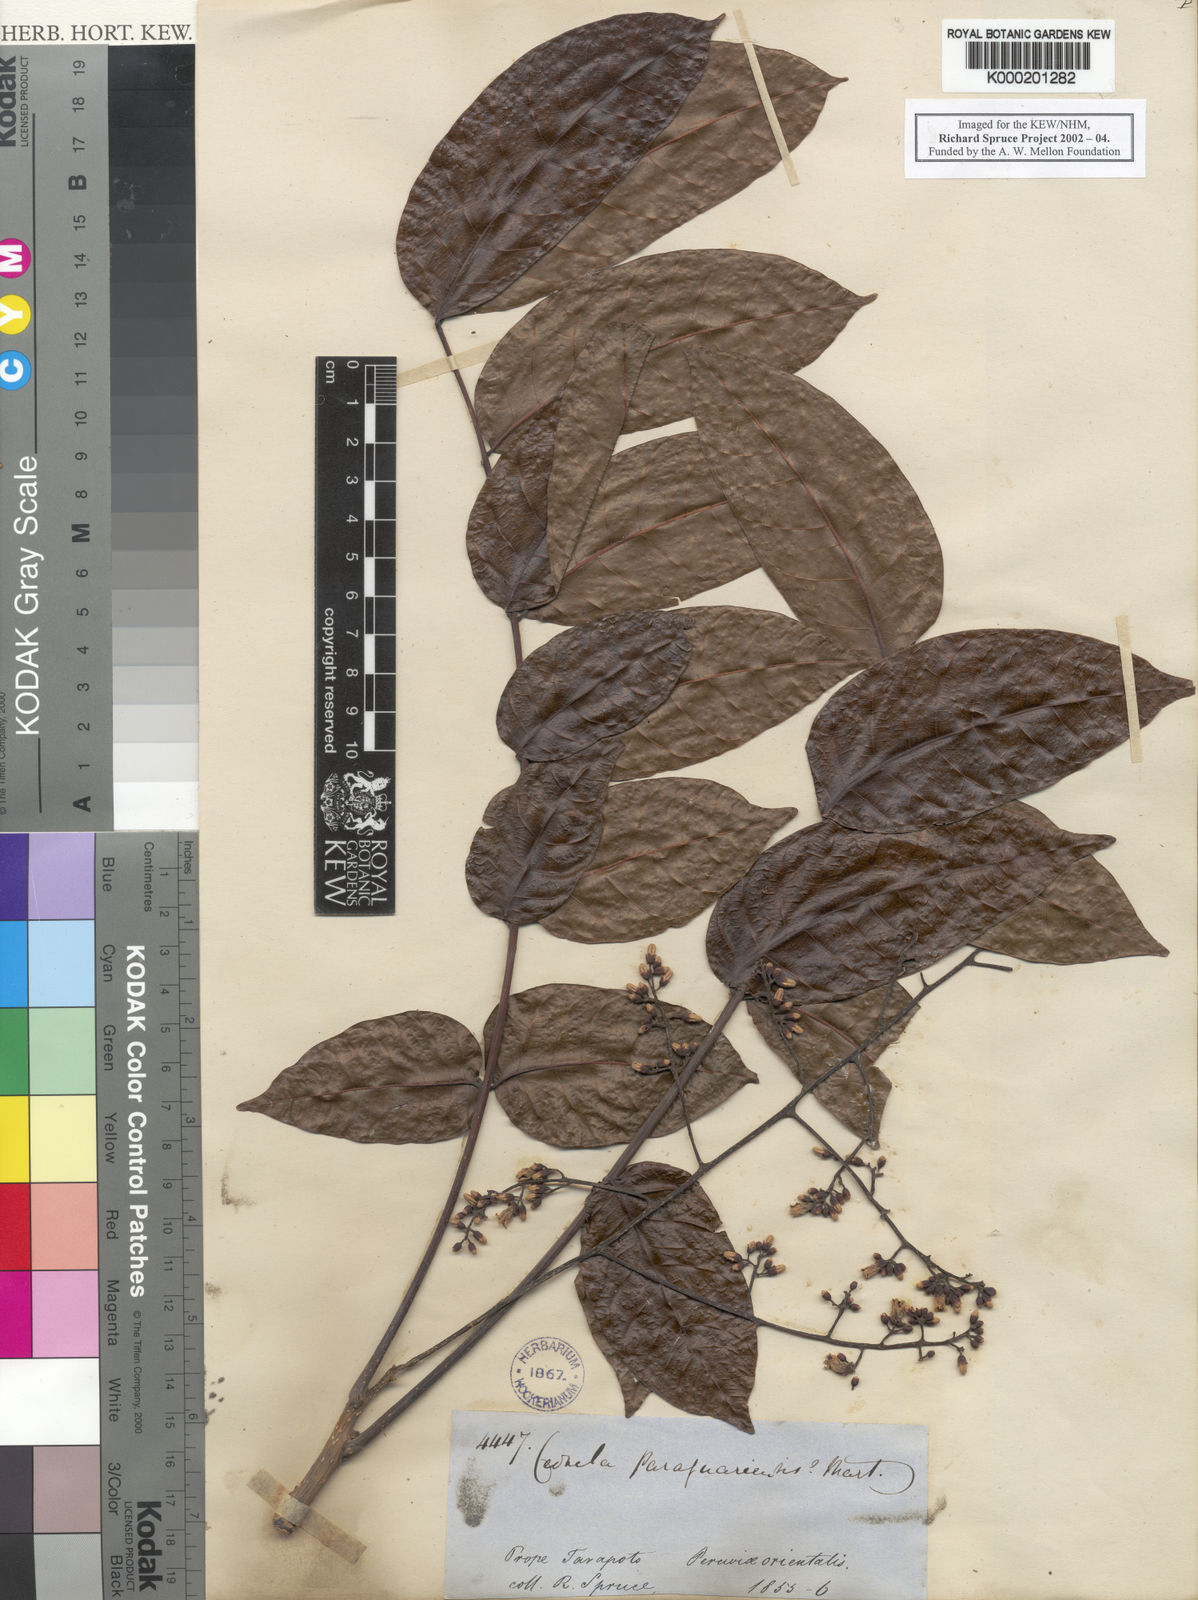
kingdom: Plantae
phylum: Tracheophyta
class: Magnoliopsida
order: Sapindales
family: Meliaceae
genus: Cedrela
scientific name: Cedrela odorata
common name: Red cedar
